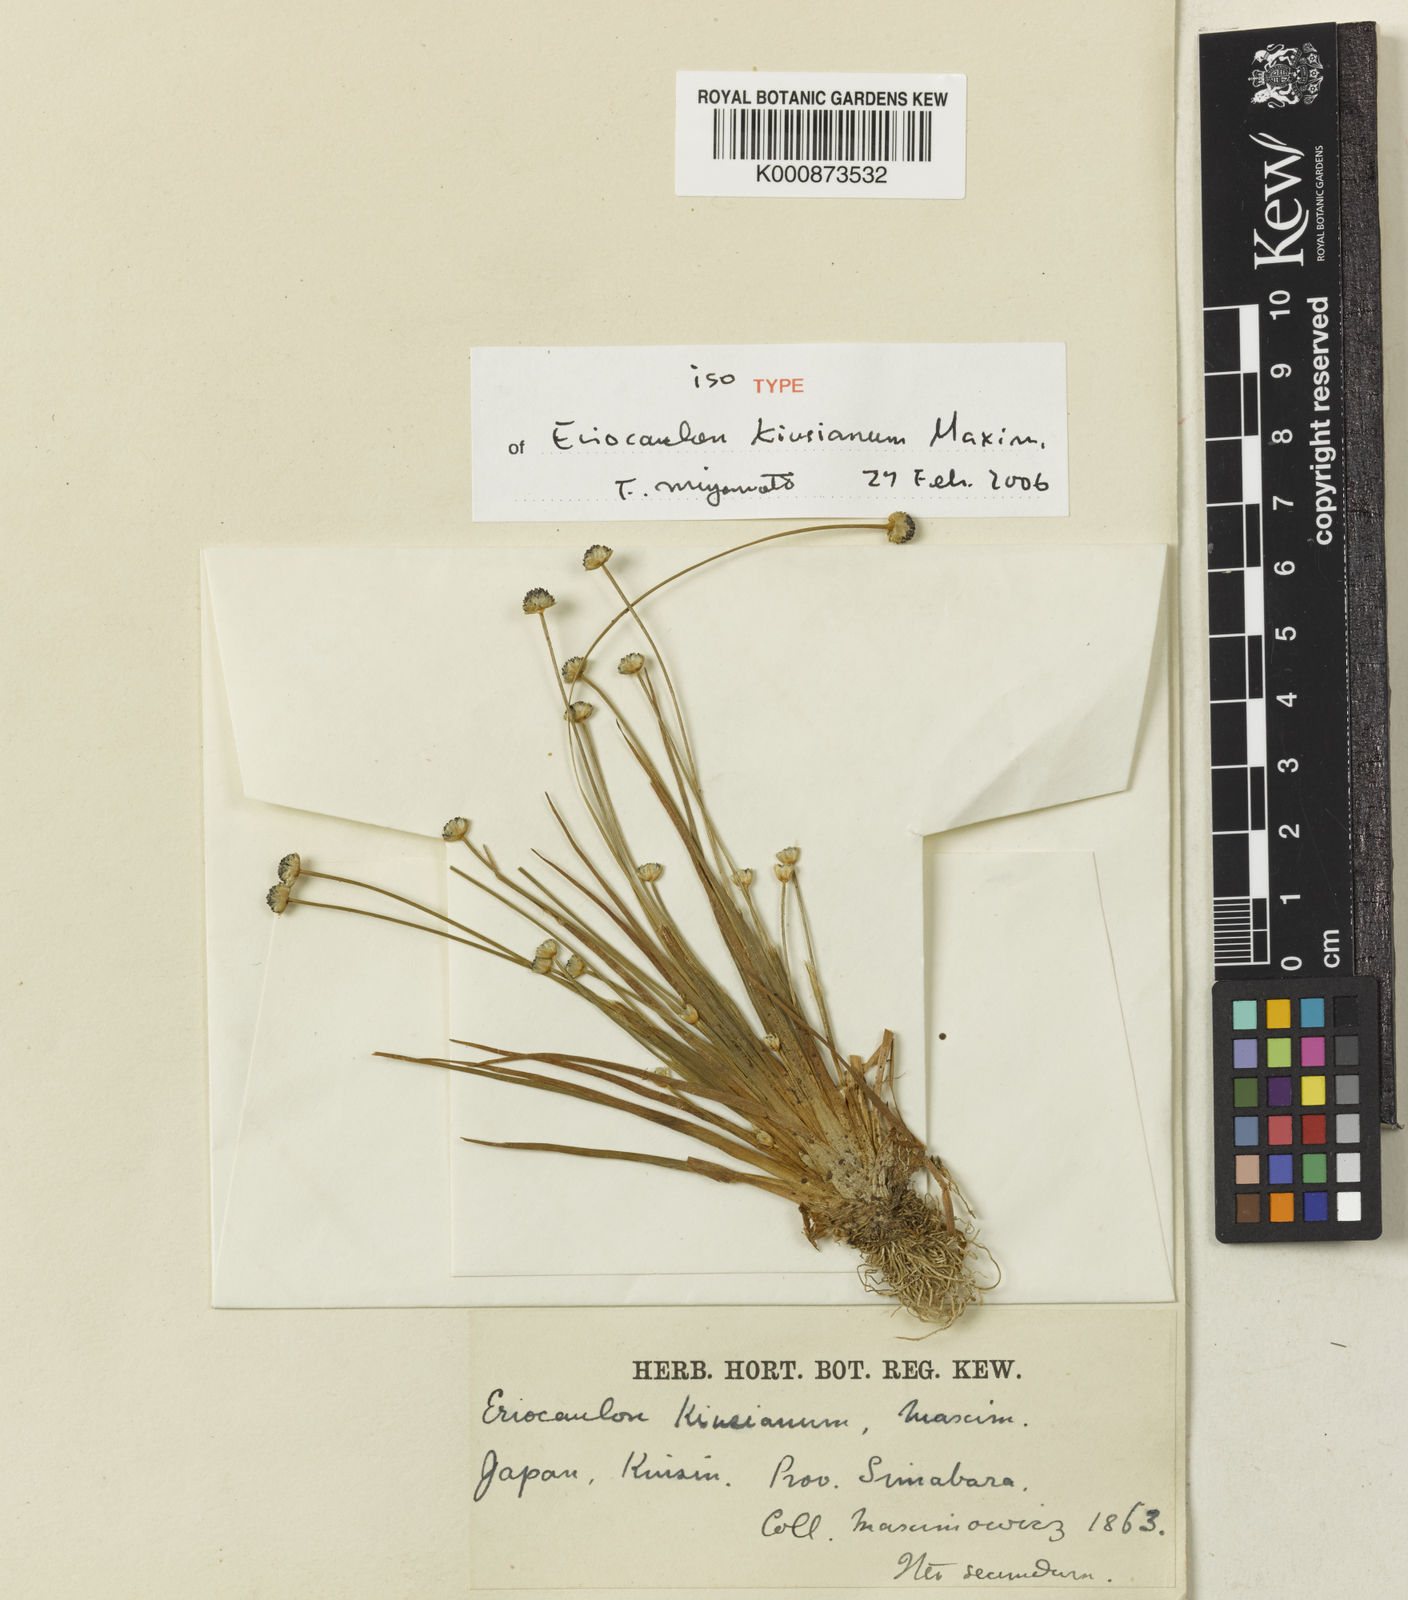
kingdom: Plantae
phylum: Tracheophyta
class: Liliopsida
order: Poales
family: Eriocaulaceae
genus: Eriocaulon
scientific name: Eriocaulon
